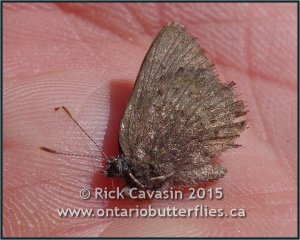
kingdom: Animalia
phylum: Arthropoda
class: Insecta
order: Lepidoptera
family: Lycaenidae
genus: Incisalia
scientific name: Incisalia irioides
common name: Brown Elfin
